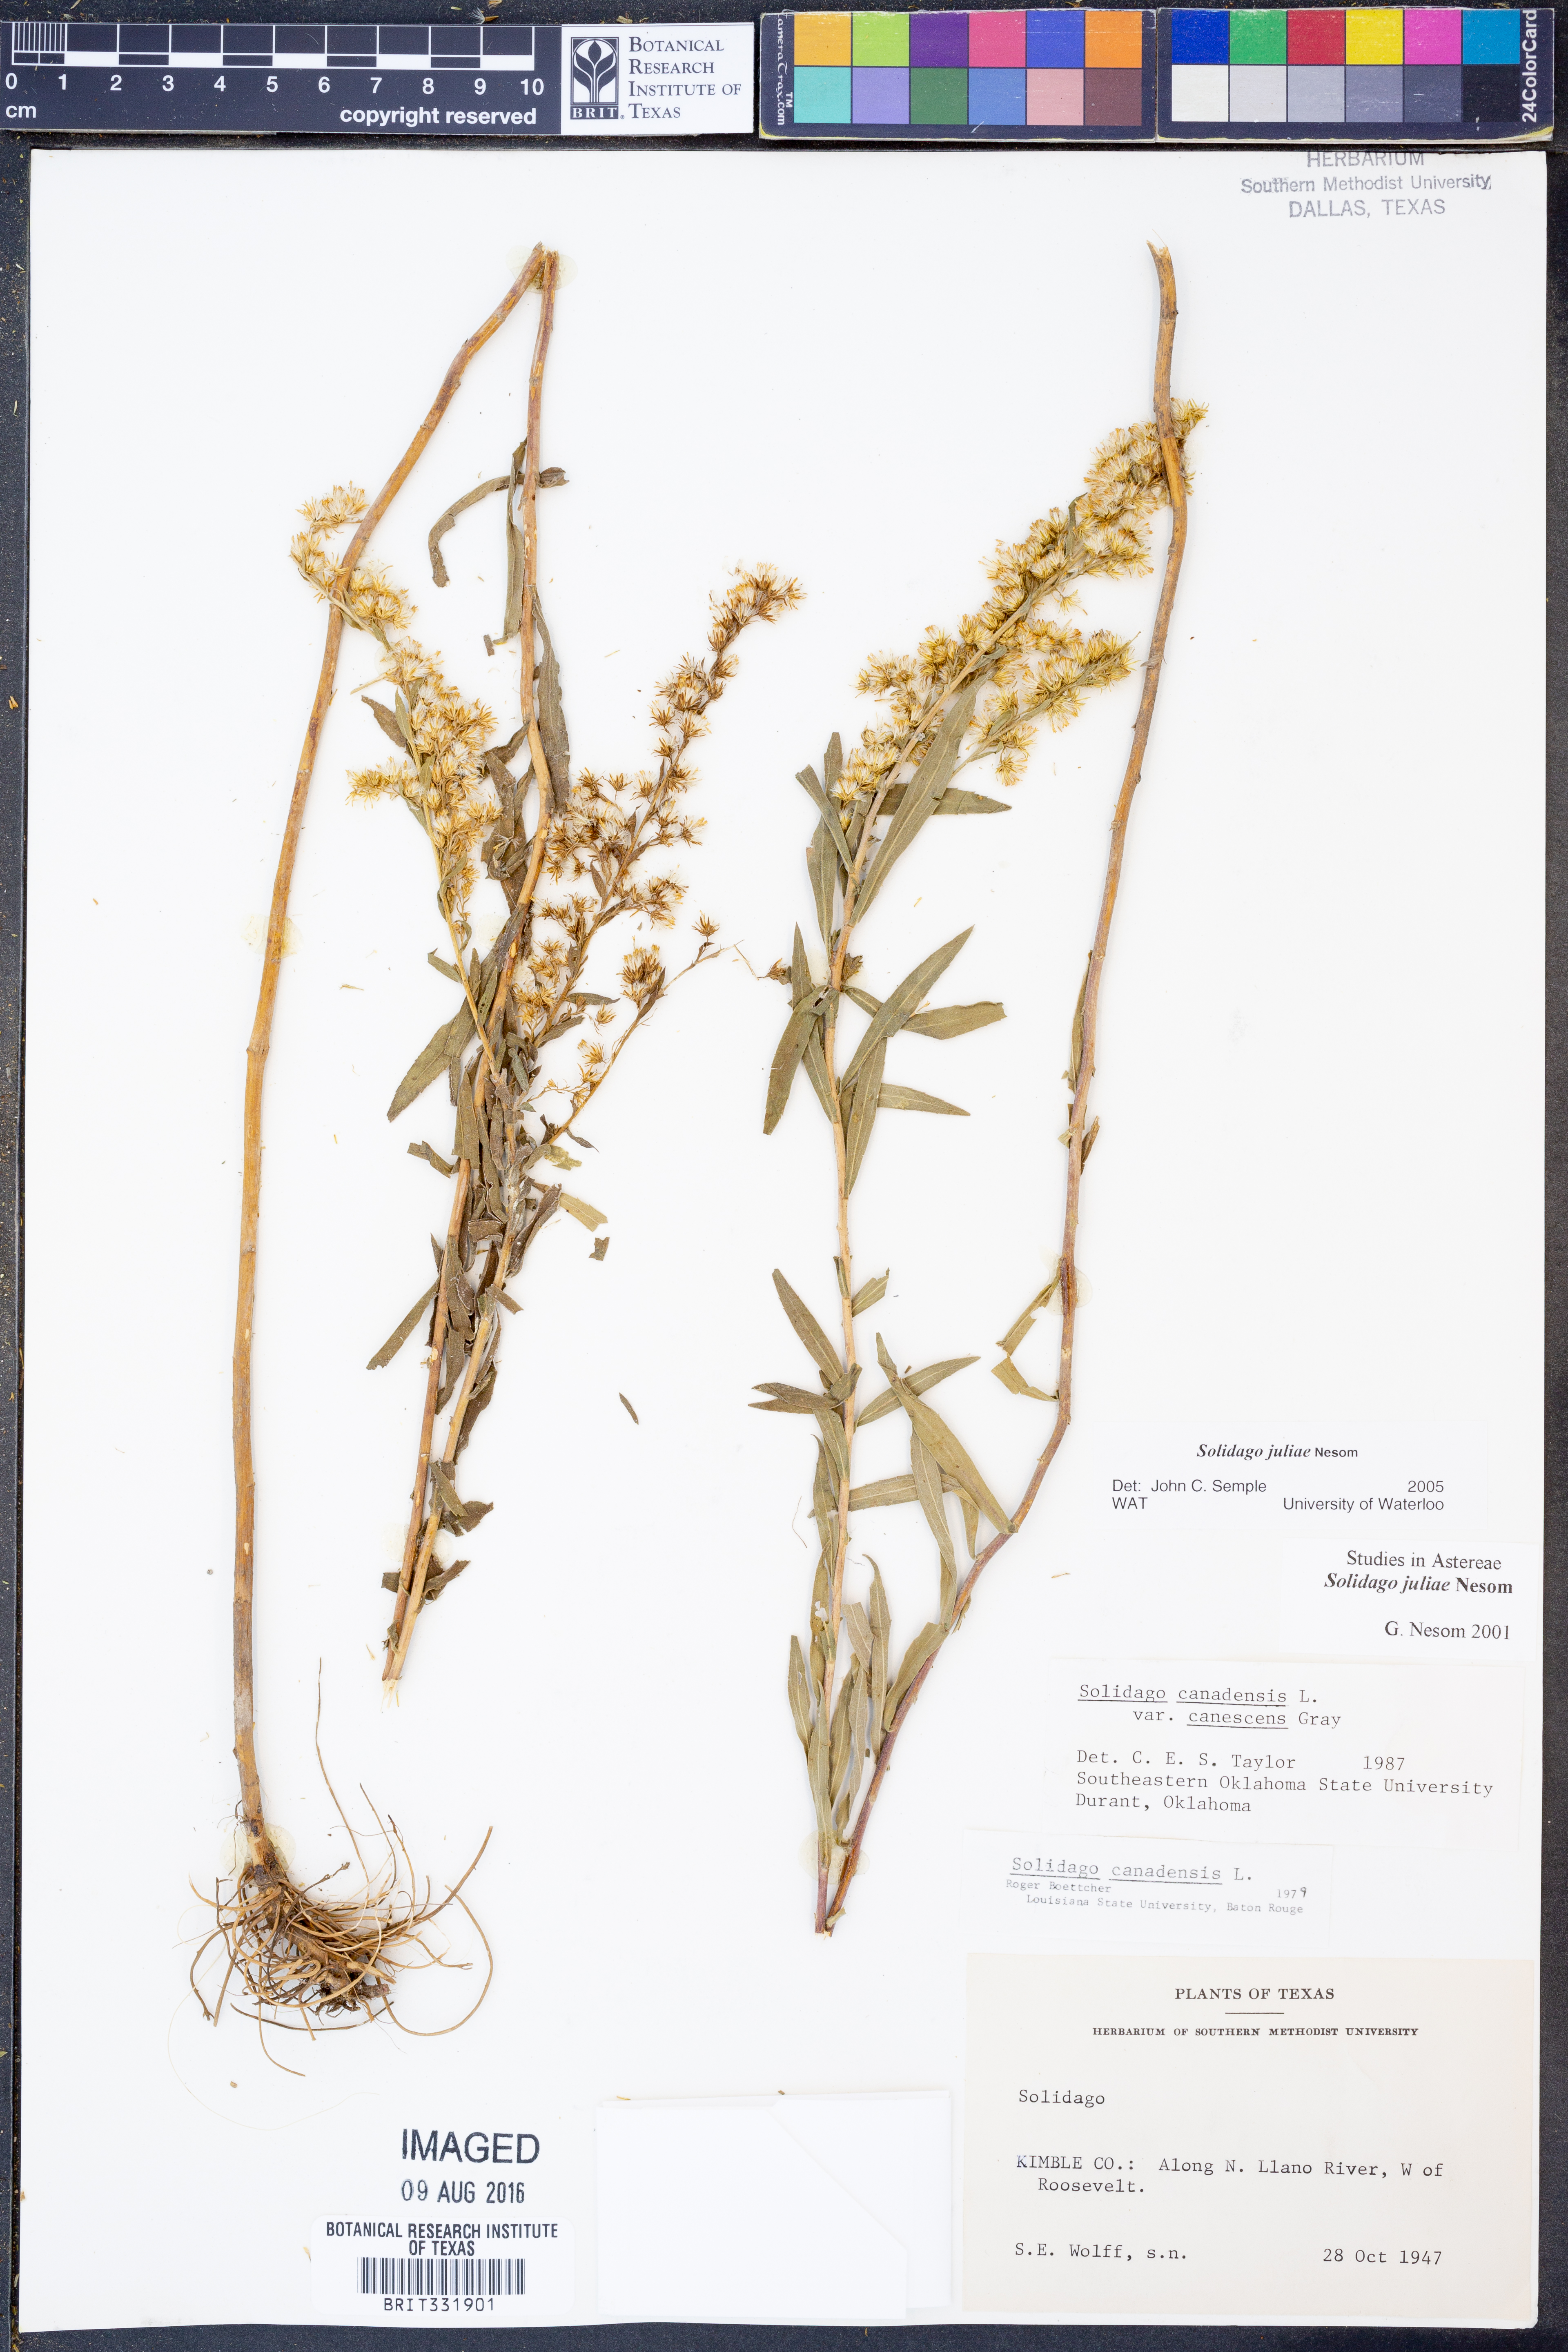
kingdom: Plantae
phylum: Tracheophyta
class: Magnoliopsida
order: Asterales
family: Asteraceae
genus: Solidago
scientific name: Solidago juliae
